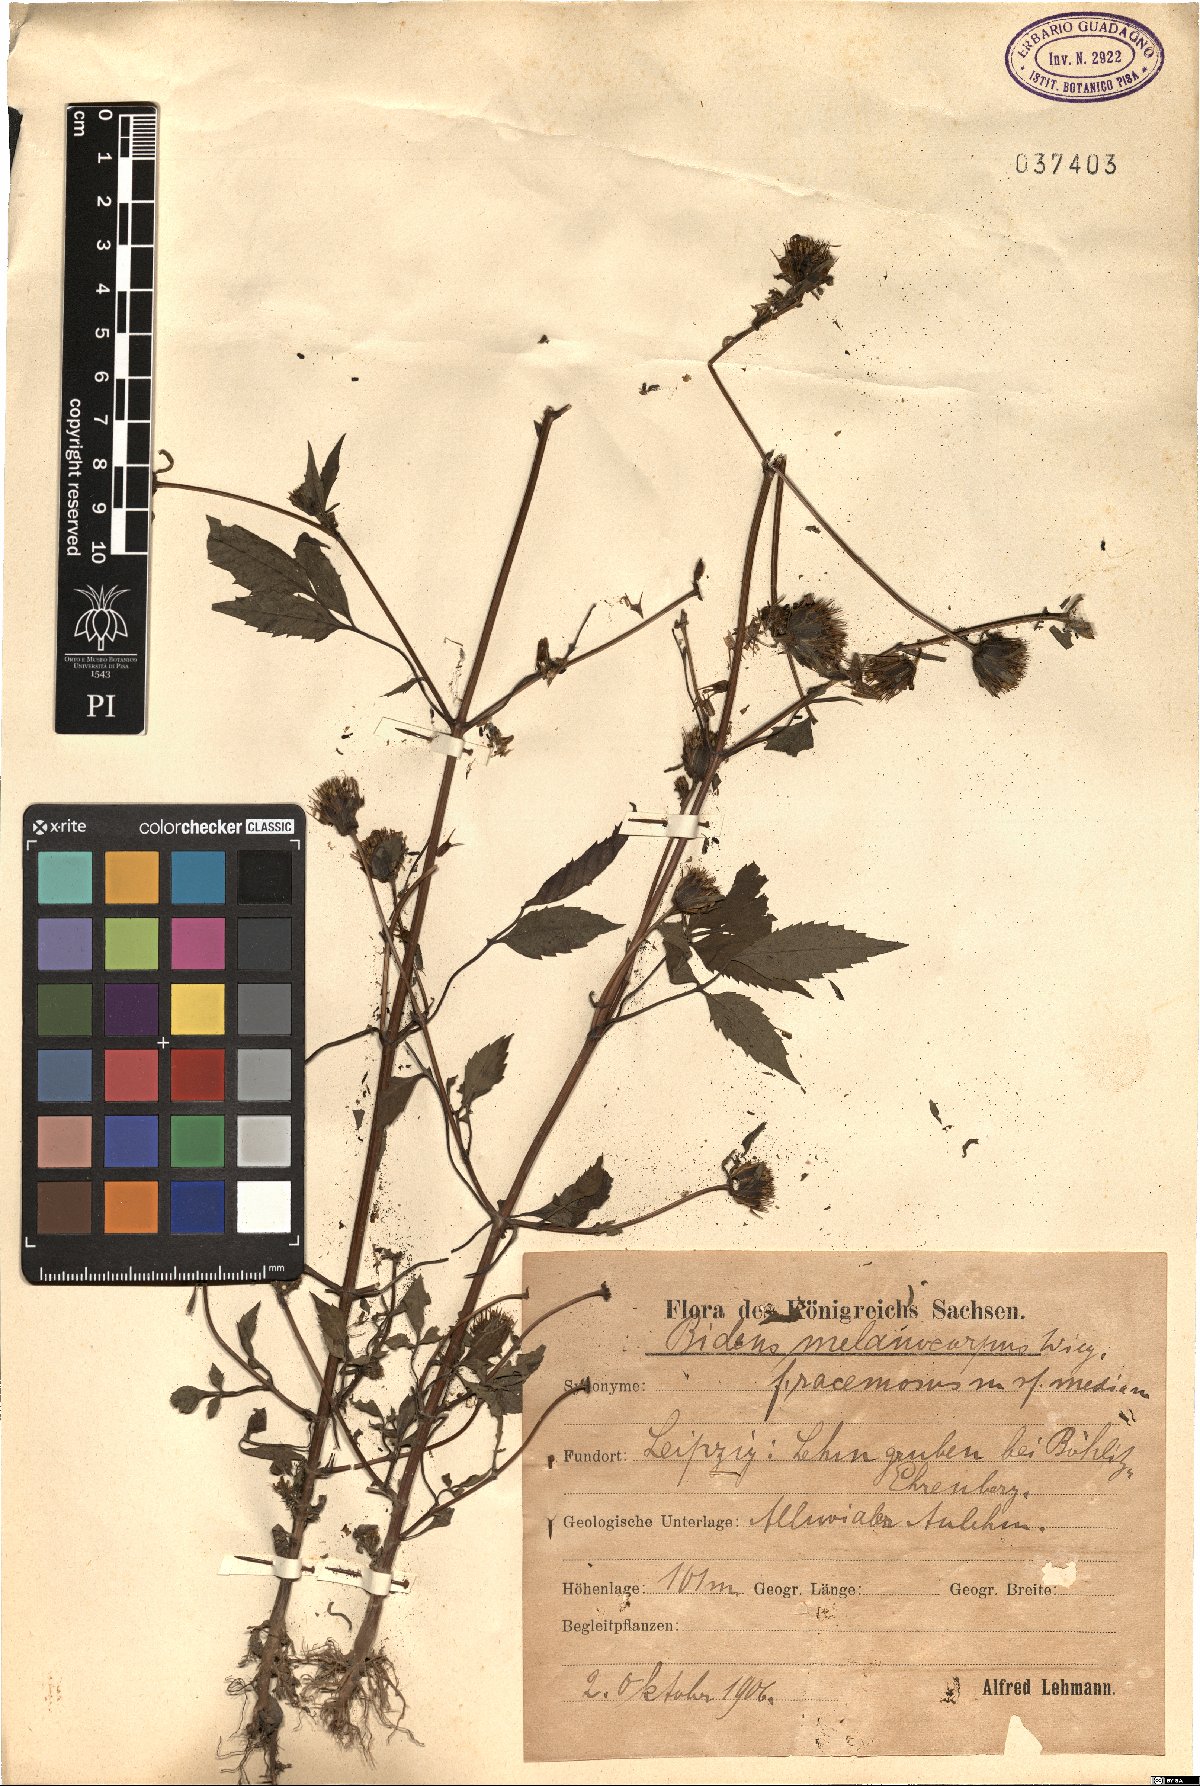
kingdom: Plantae
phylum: Tracheophyta
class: Magnoliopsida
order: Asterales
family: Asteraceae
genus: Bidens
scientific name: Bidens frondosa
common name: Beggarticks
